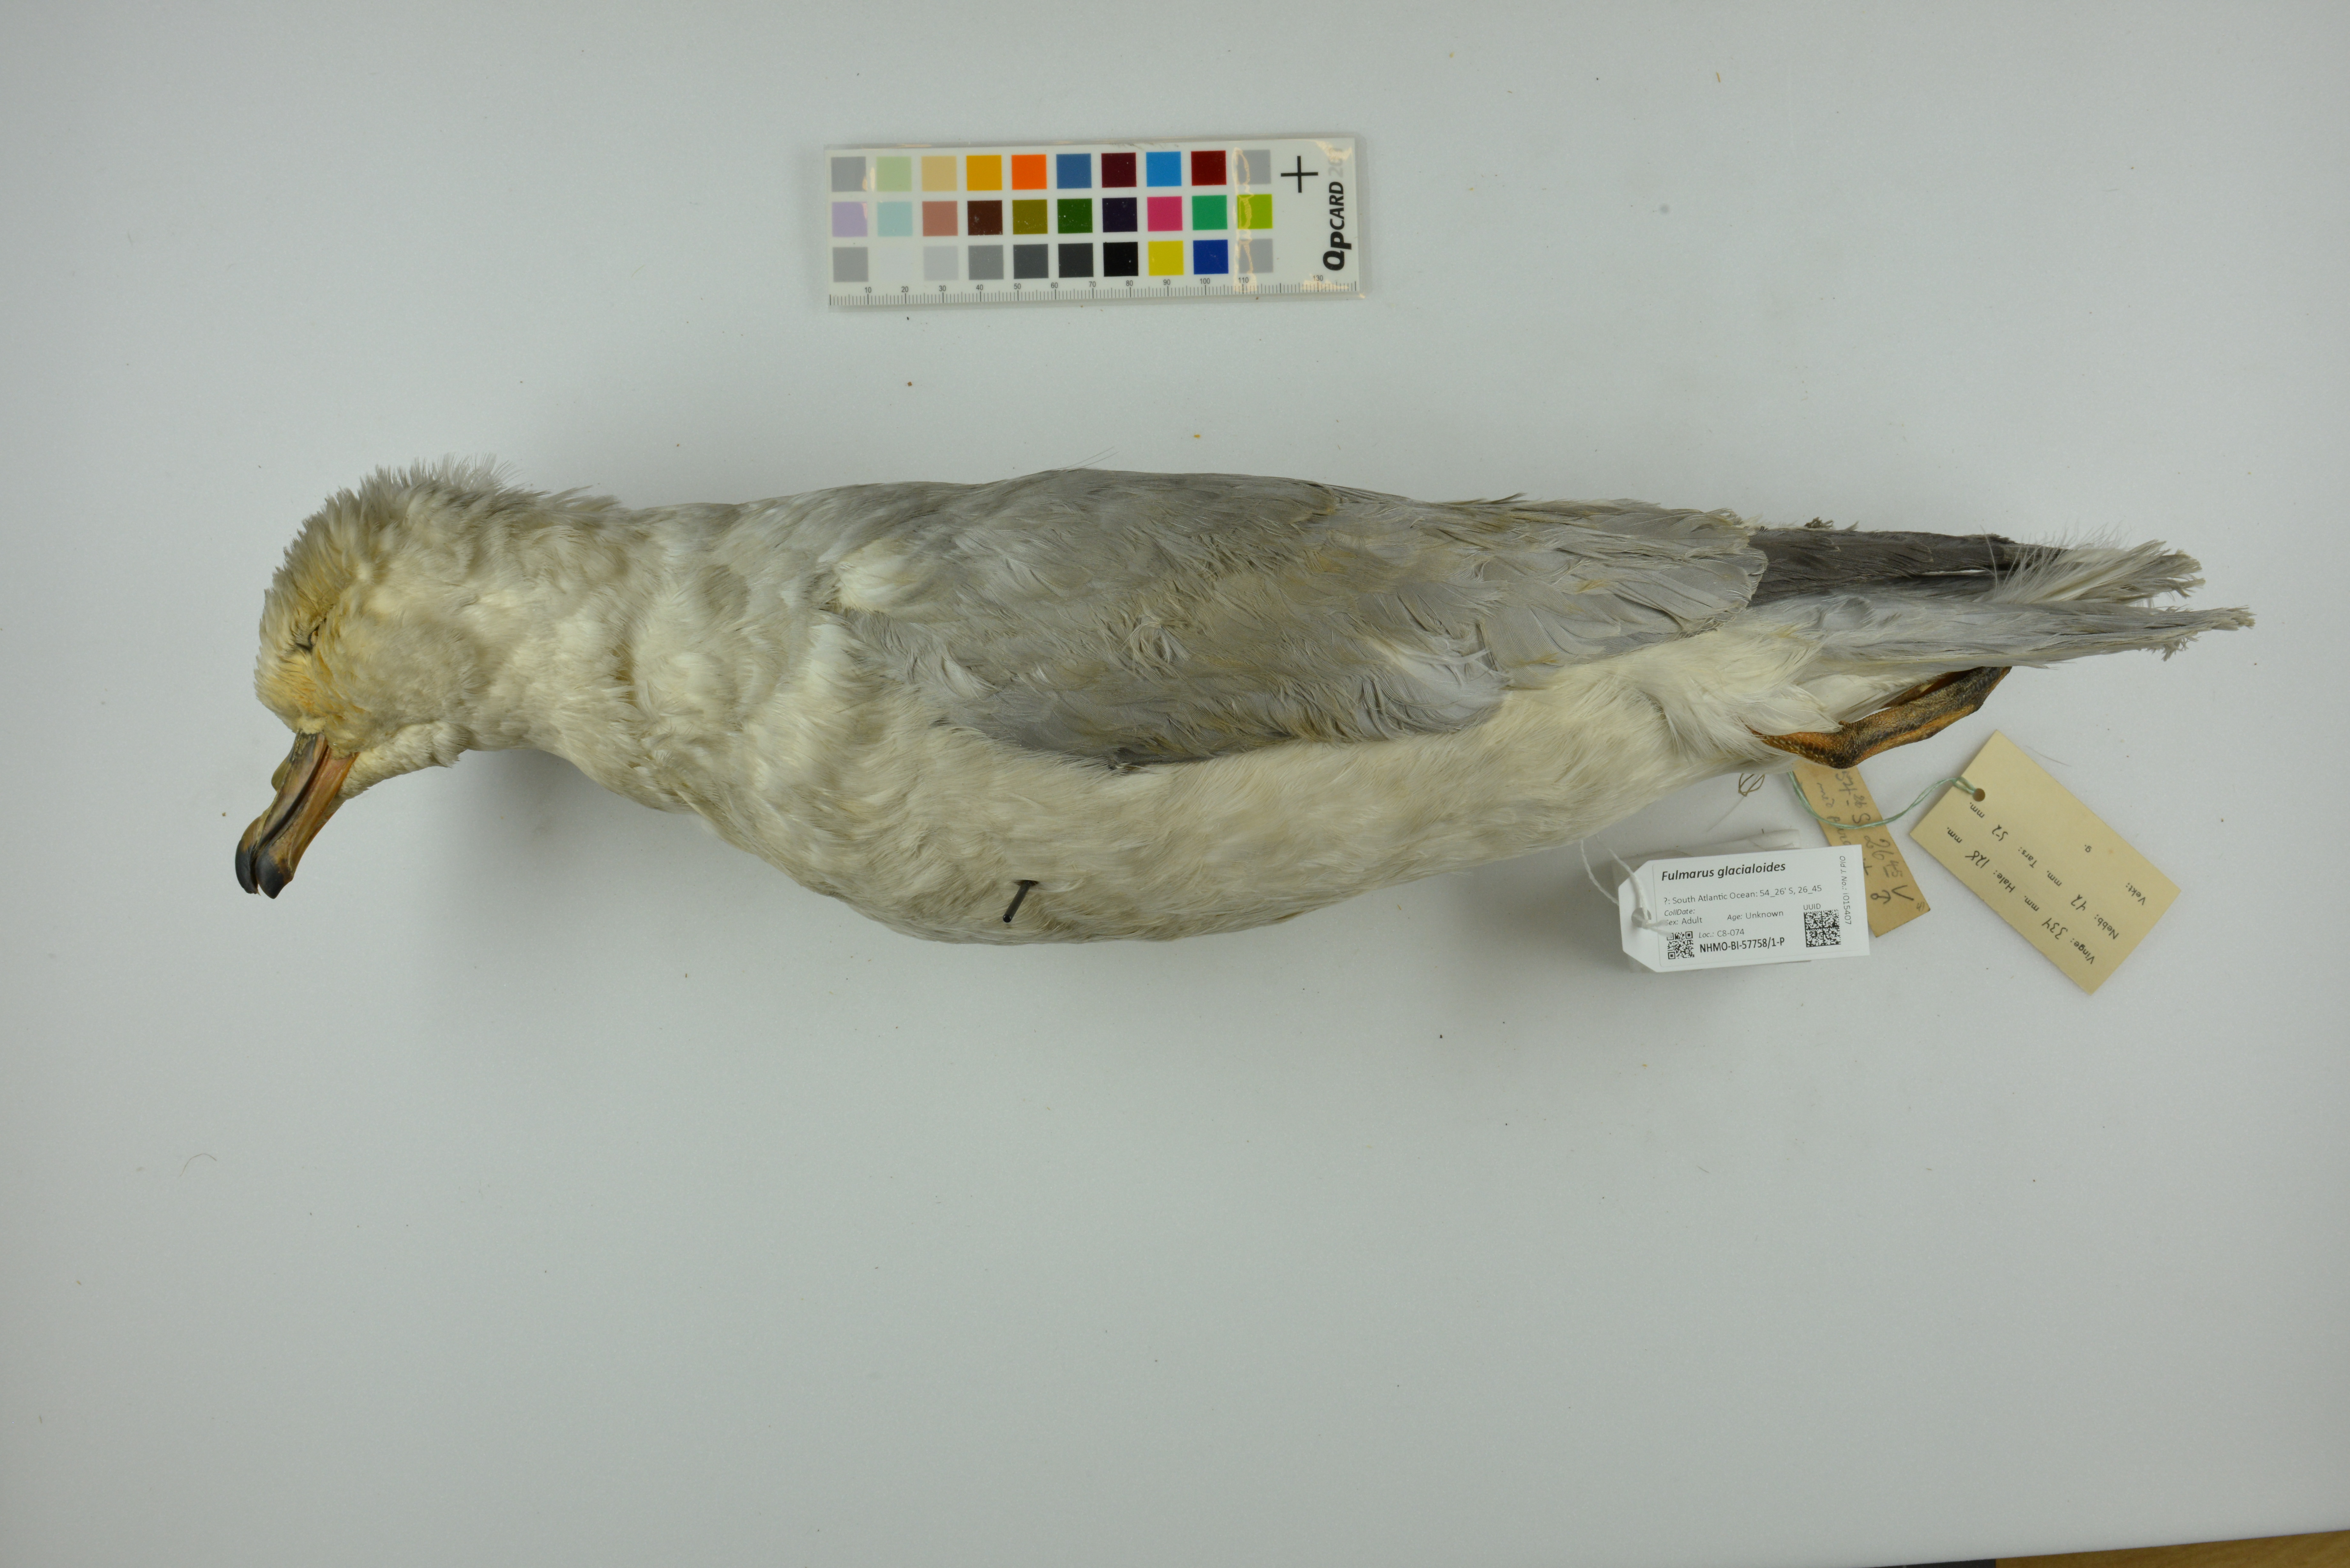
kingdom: Animalia
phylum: Chordata
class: Aves
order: Procellariiformes
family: Procellariidae
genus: Fulmarus
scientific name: Fulmarus glacialoides
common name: Southern fulmar
